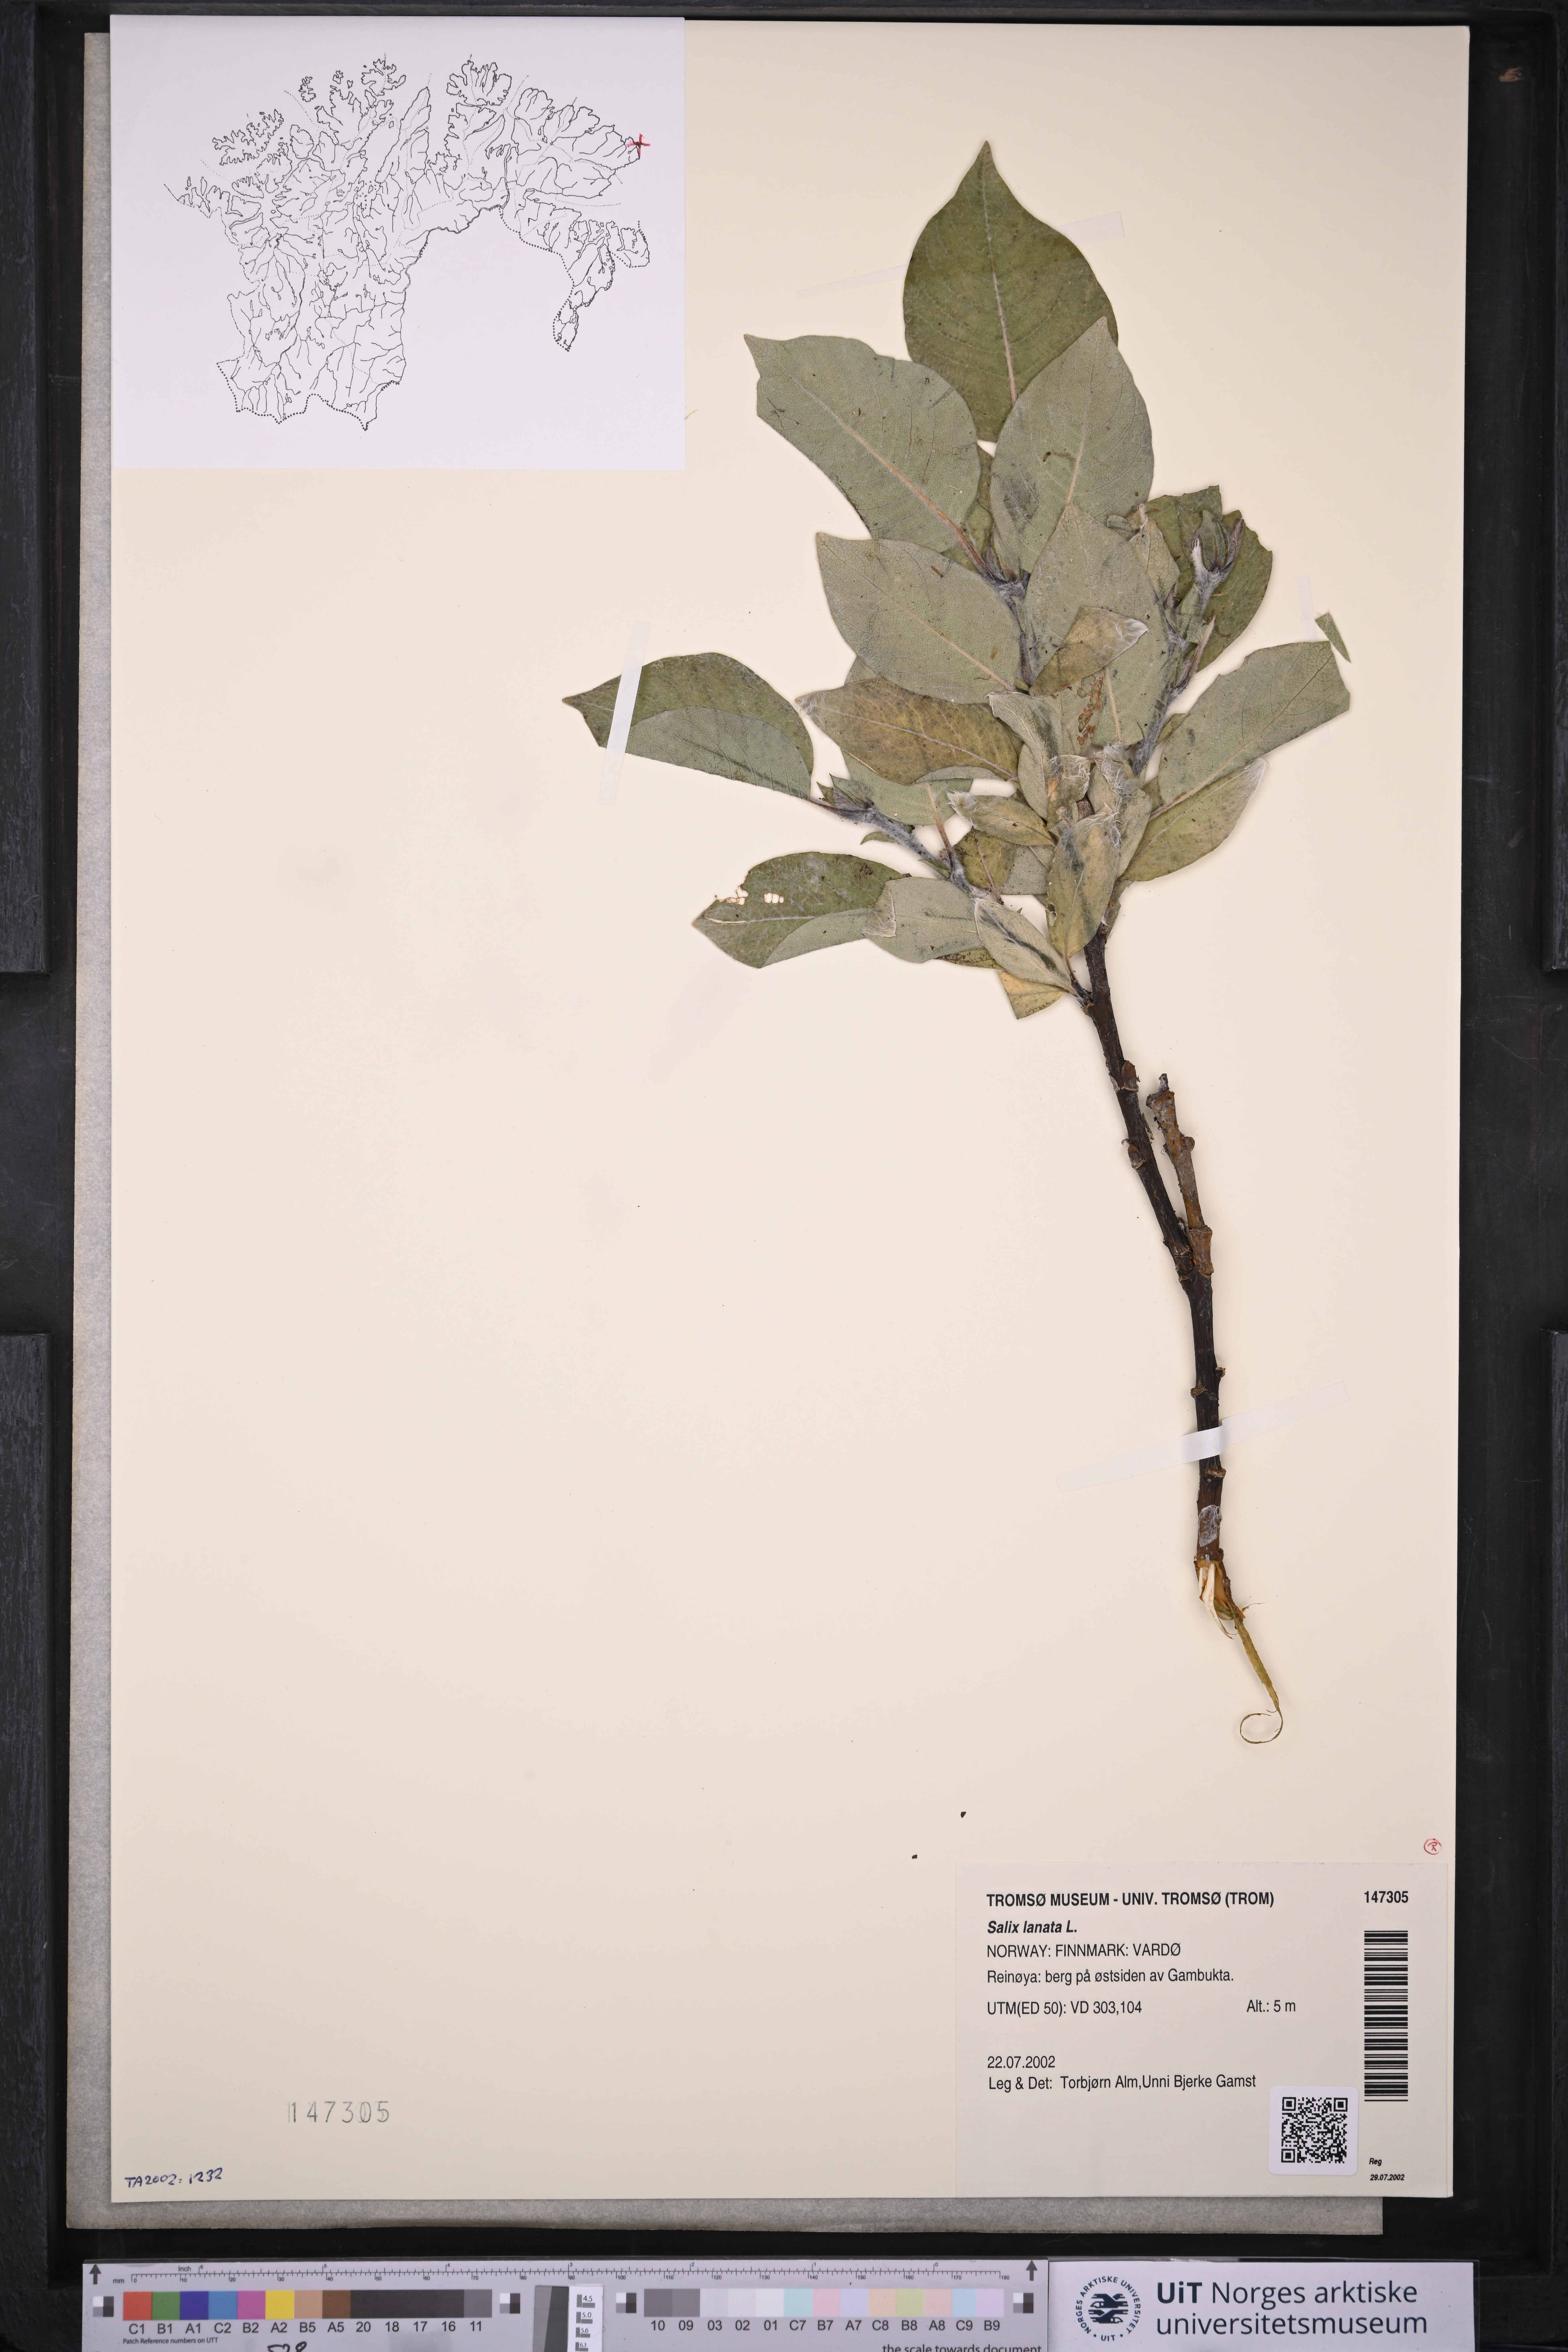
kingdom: Plantae
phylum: Tracheophyta
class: Magnoliopsida
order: Malpighiales
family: Salicaceae
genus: Salix
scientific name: Salix lanata
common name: Woolly willow
